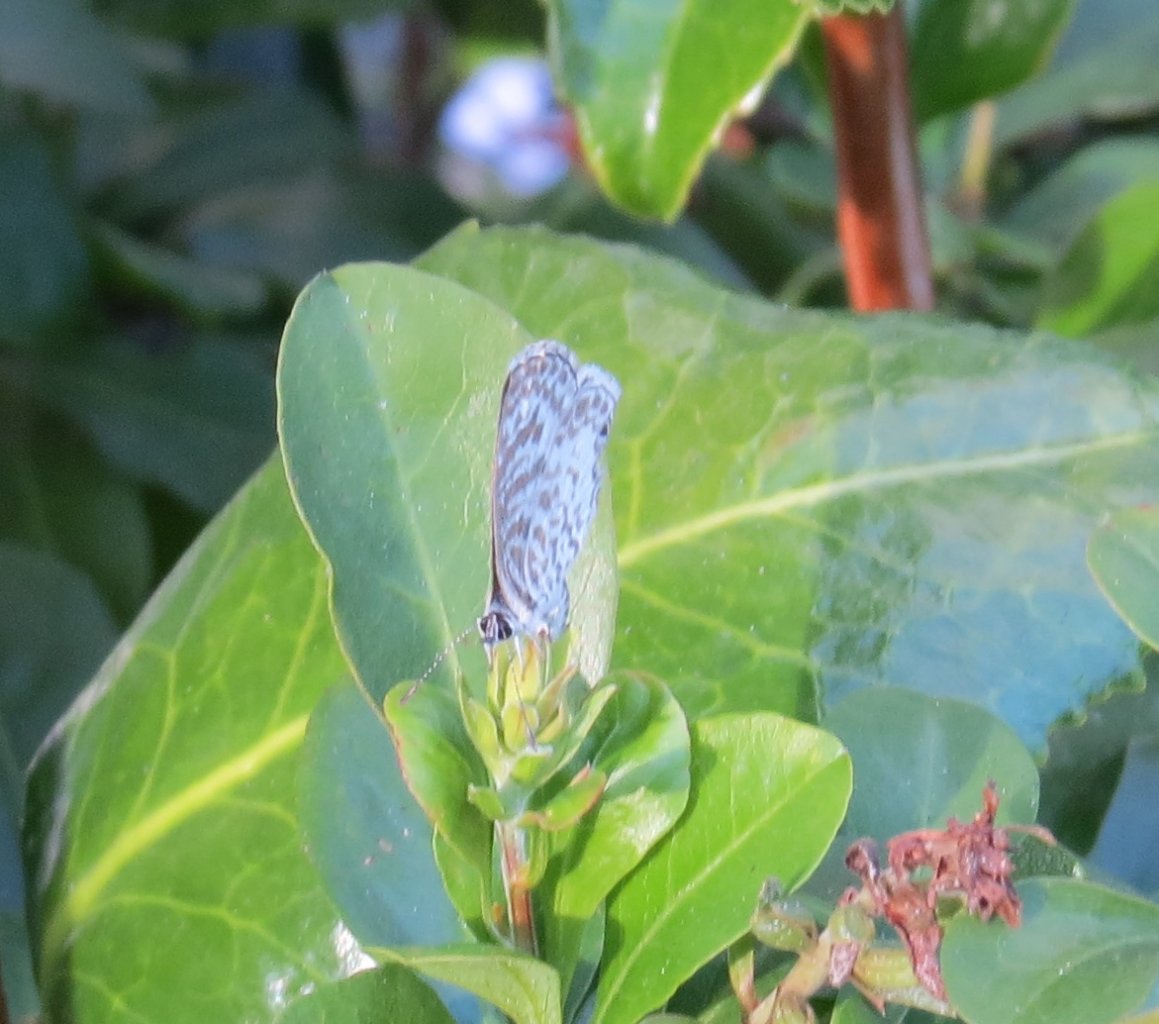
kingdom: Animalia
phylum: Arthropoda
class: Insecta
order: Lepidoptera
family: Lycaenidae
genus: Leptotes
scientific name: Leptotes cassius
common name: Cassius Blue
